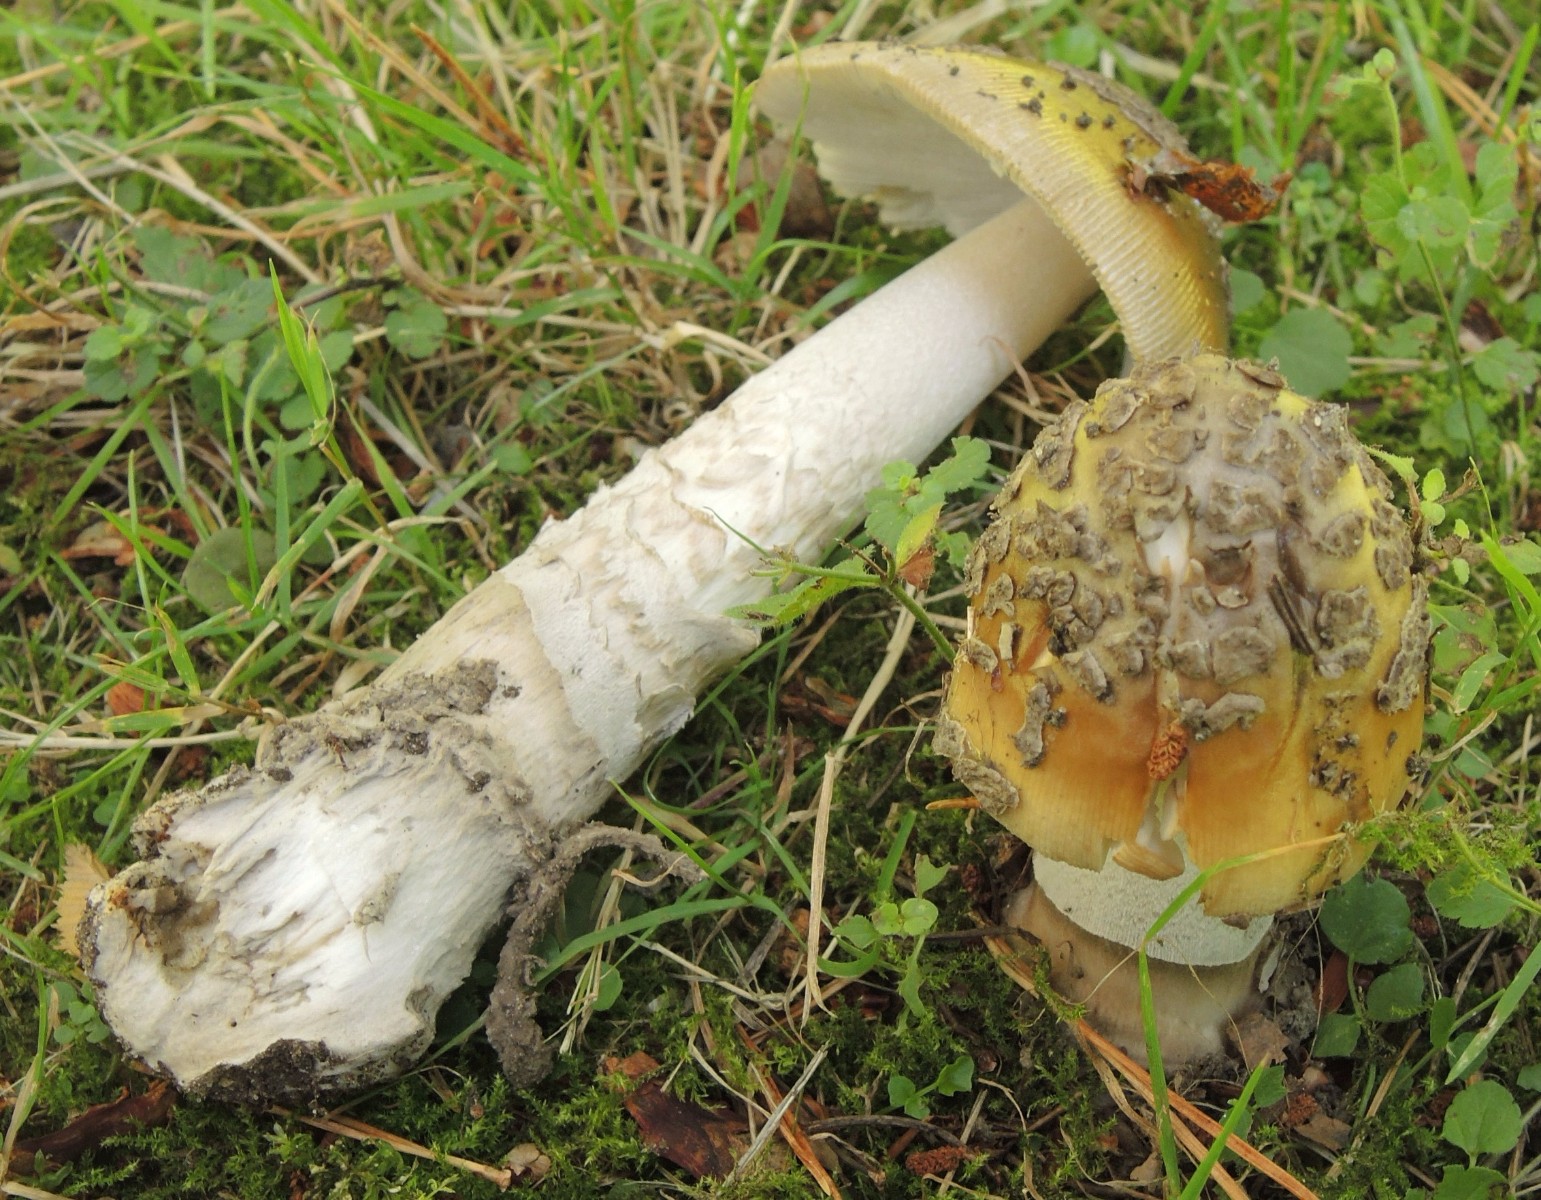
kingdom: Fungi
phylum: Basidiomycota
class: Agaricomycetes
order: Agaricales
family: Amanitaceae
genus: Amanita
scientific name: Amanita ceciliae
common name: stor kam-fluesvamp
